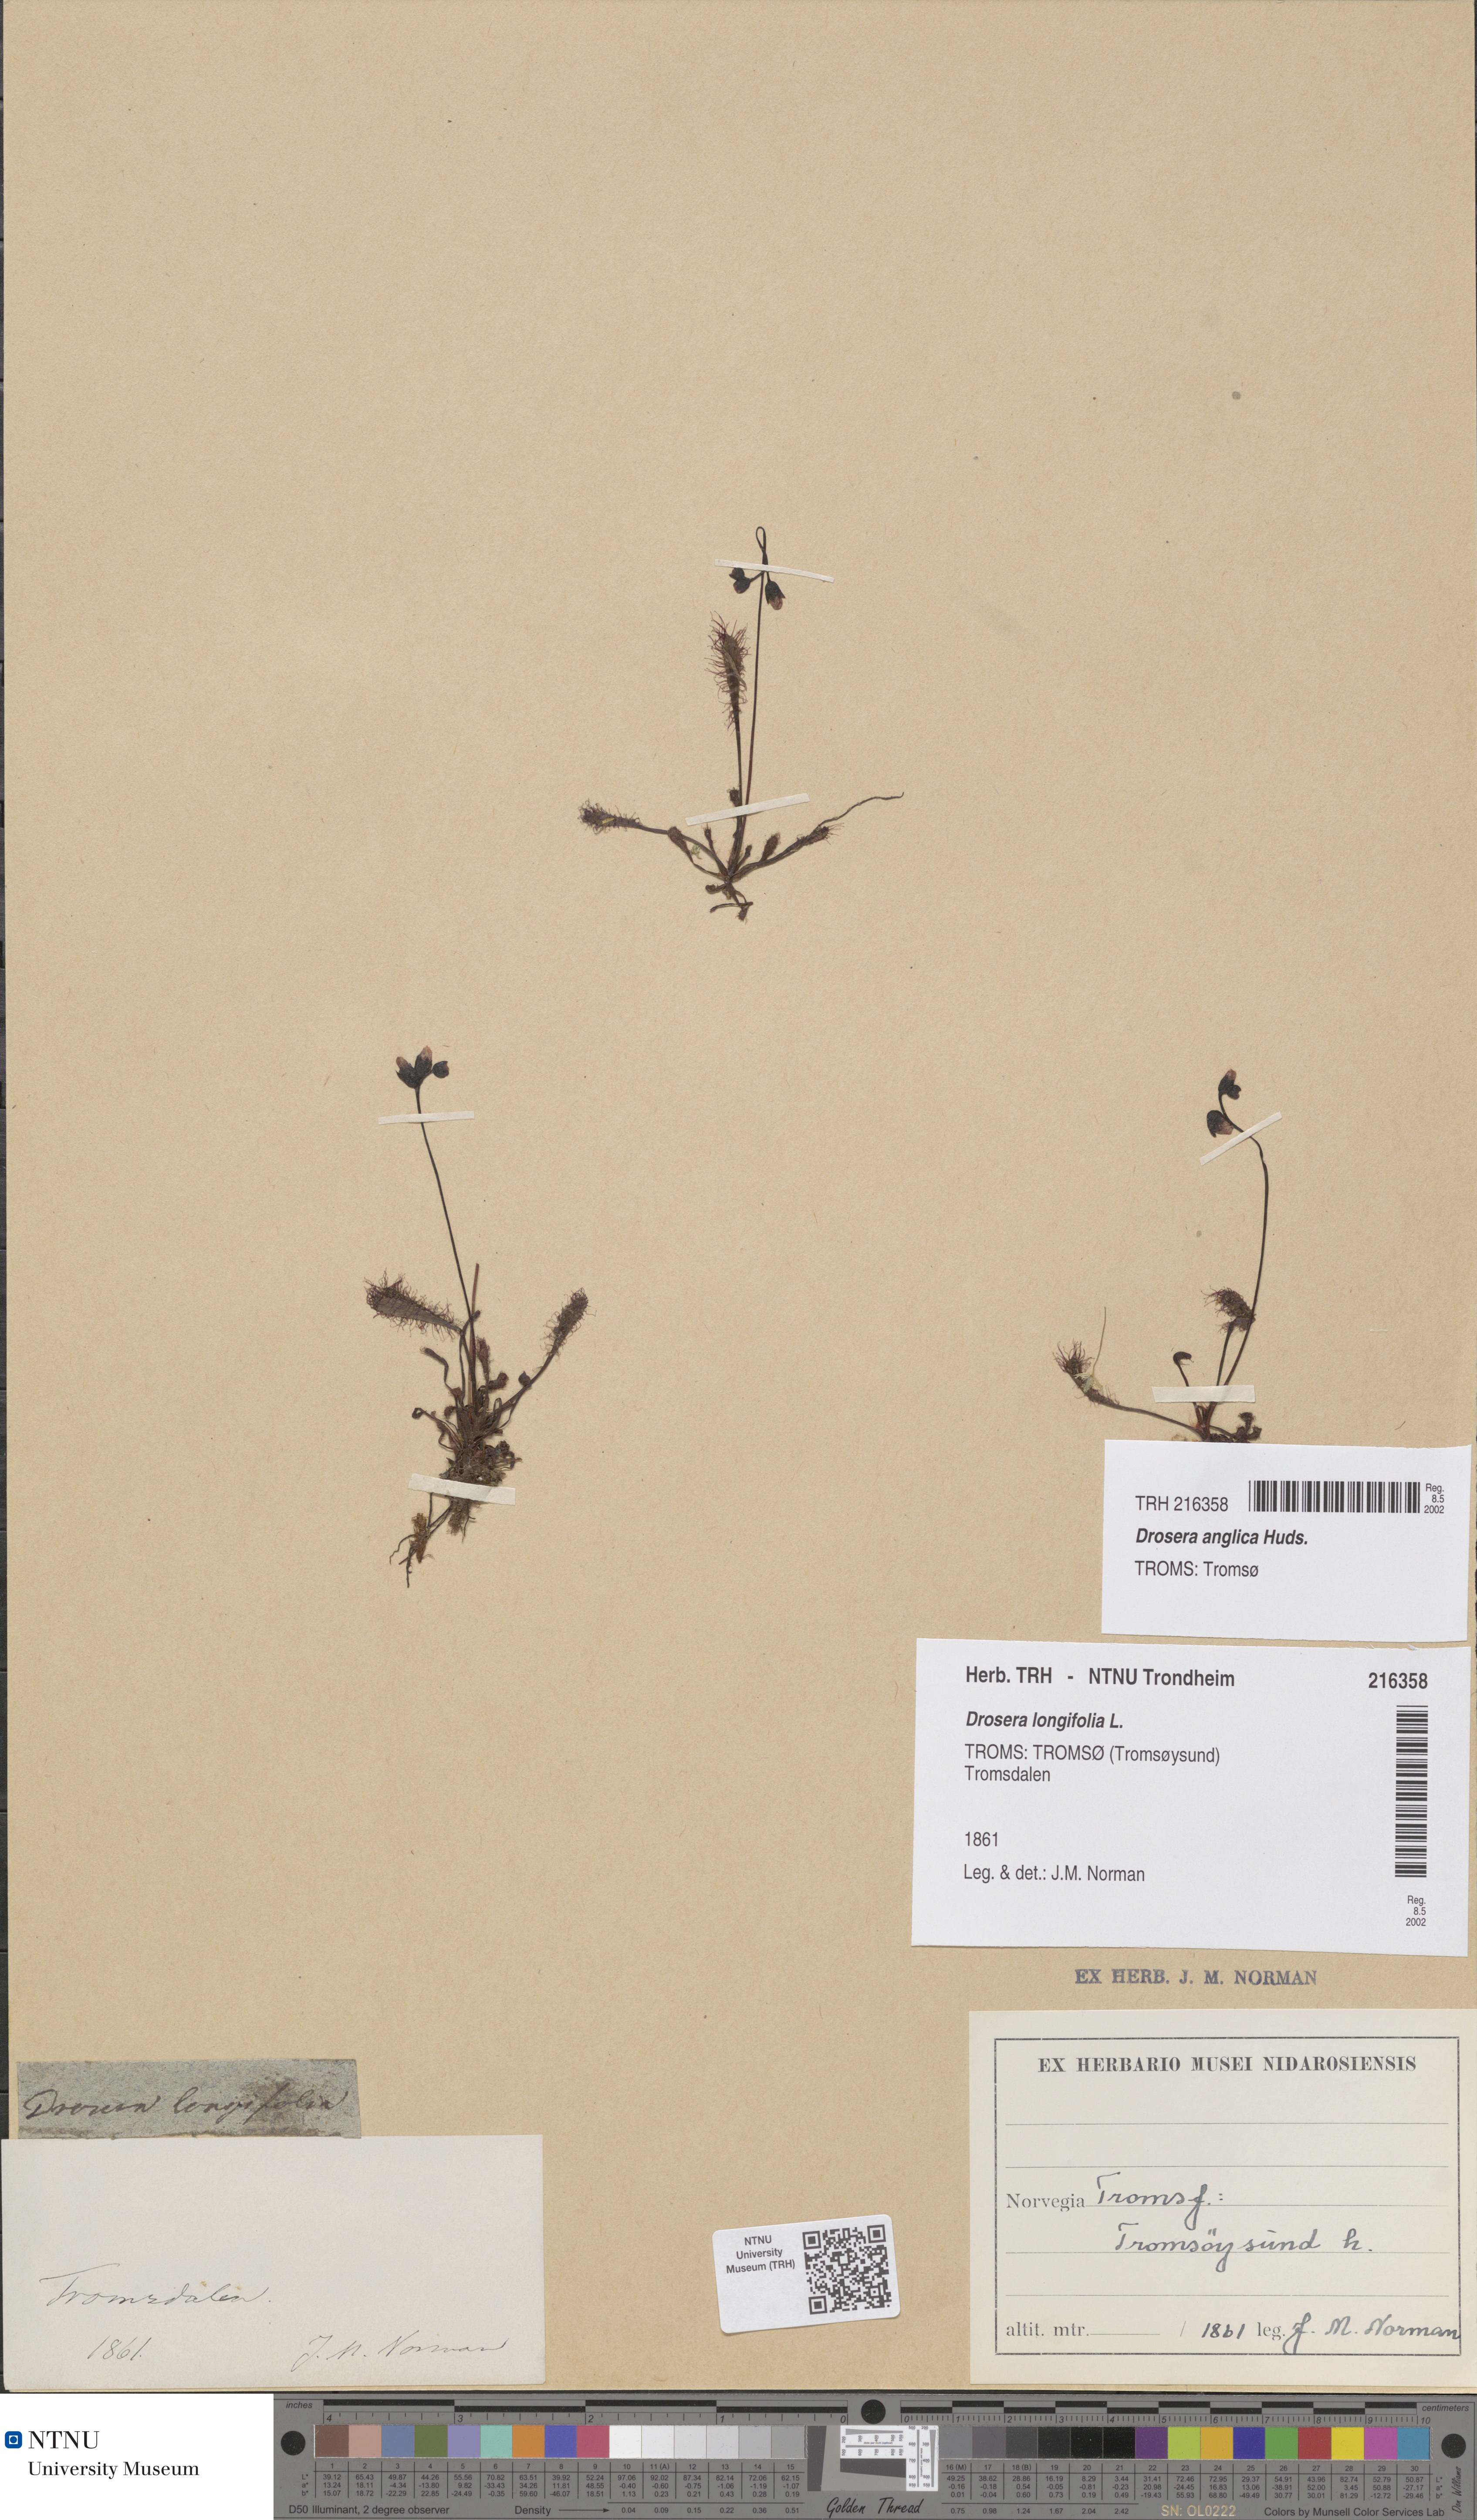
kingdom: Plantae
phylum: Tracheophyta
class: Magnoliopsida
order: Caryophyllales
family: Droseraceae
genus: Drosera
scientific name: Drosera anglica
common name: Great sundew
